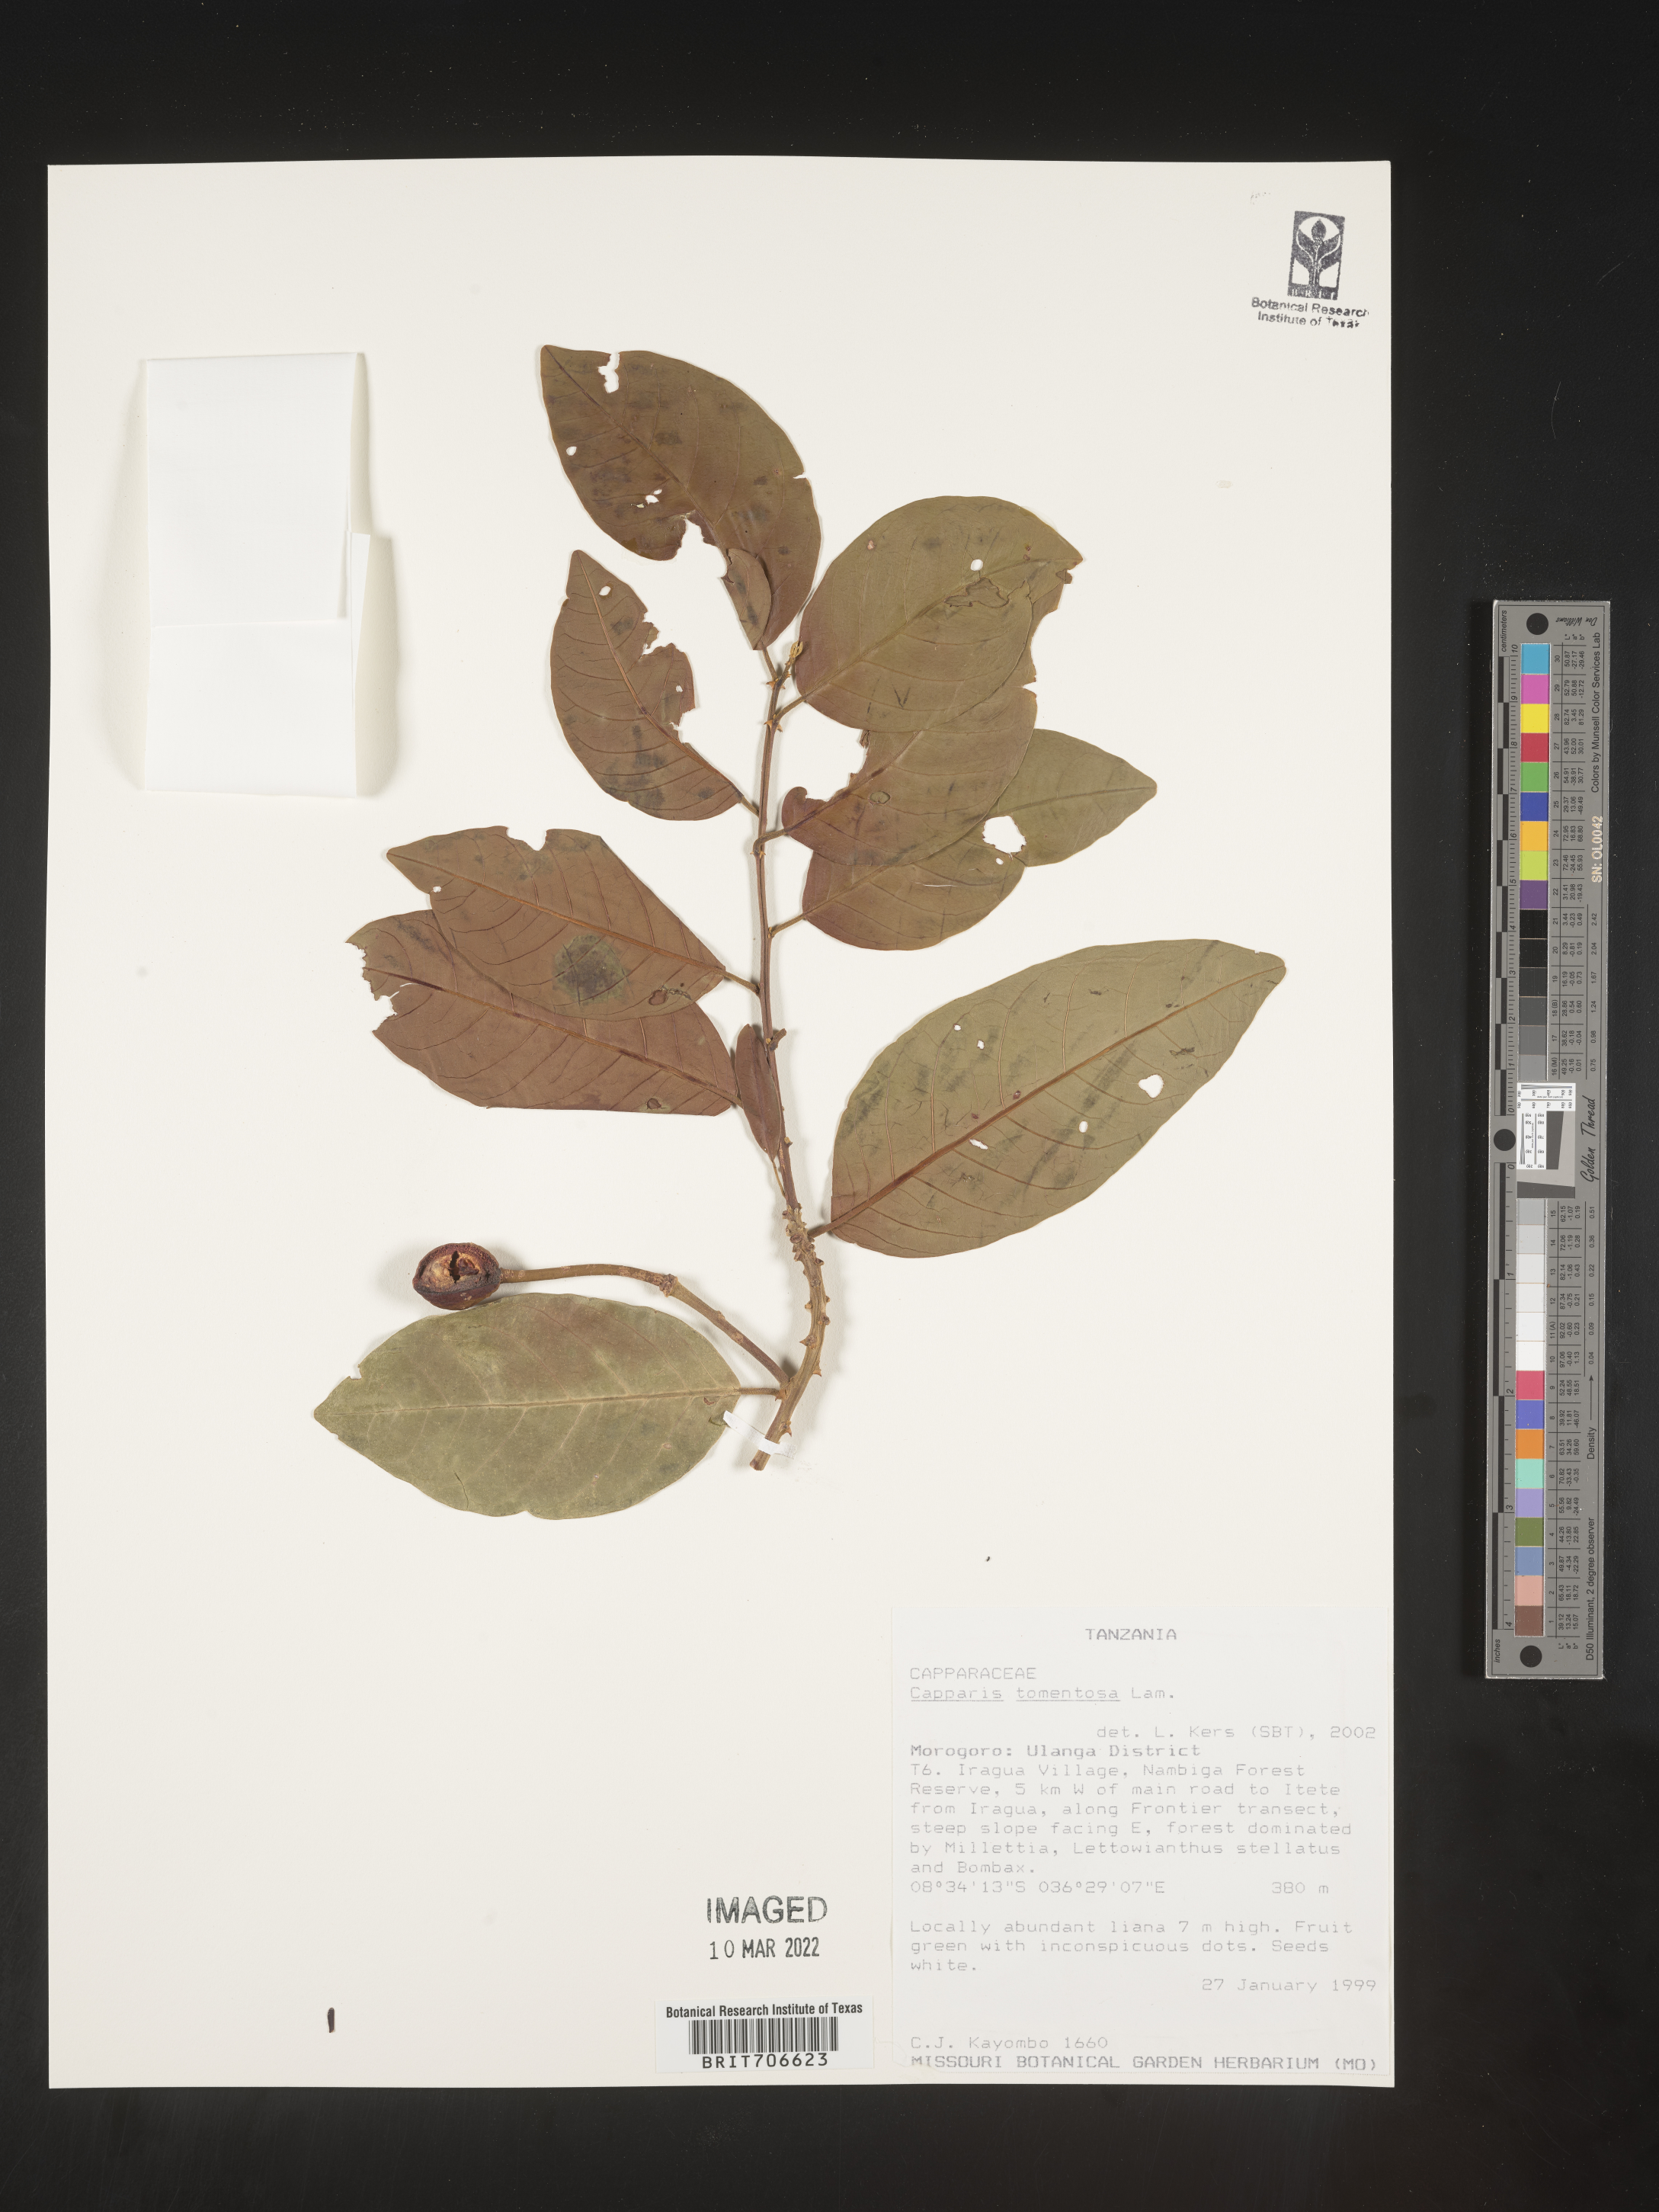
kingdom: Plantae
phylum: Tracheophyta
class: Magnoliopsida
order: Brassicales
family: Capparaceae
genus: Capparis
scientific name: Capparis
